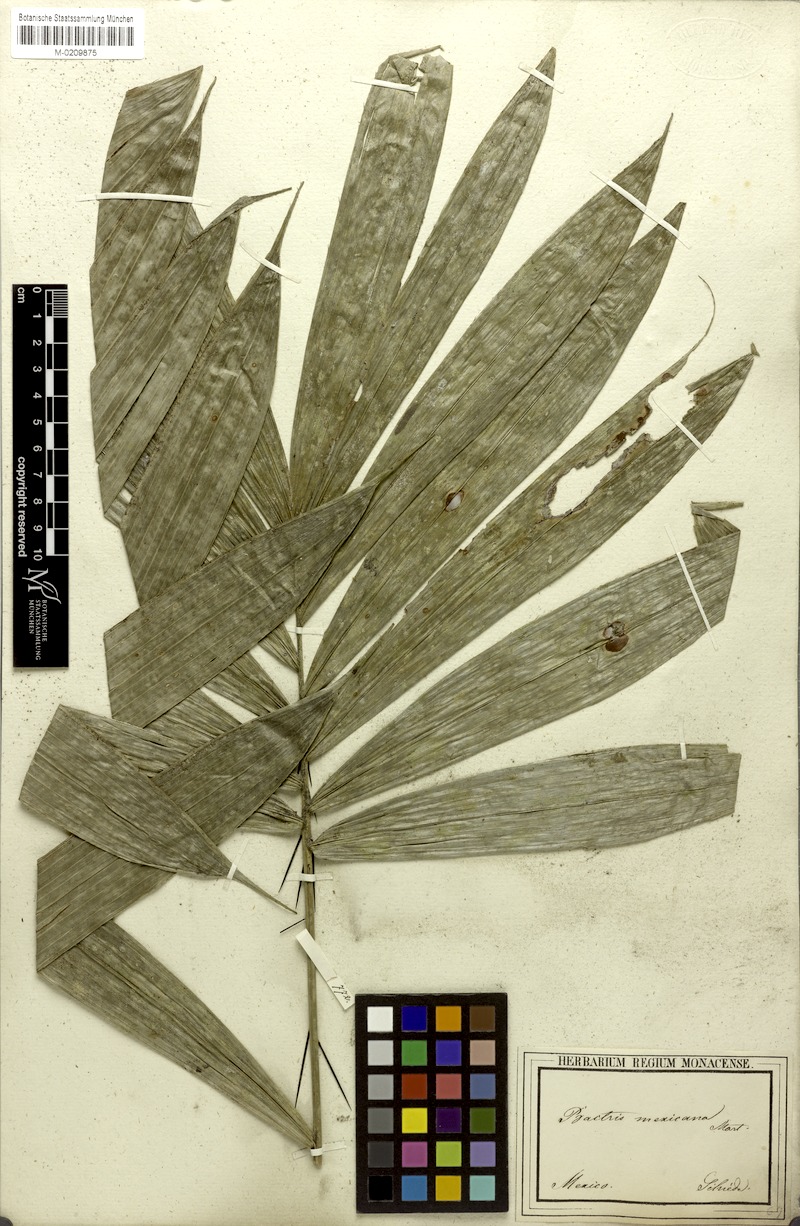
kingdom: Plantae
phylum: Tracheophyta
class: Liliopsida
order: Arecales
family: Arecaceae
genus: Bactris
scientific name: Bactris mexicana
